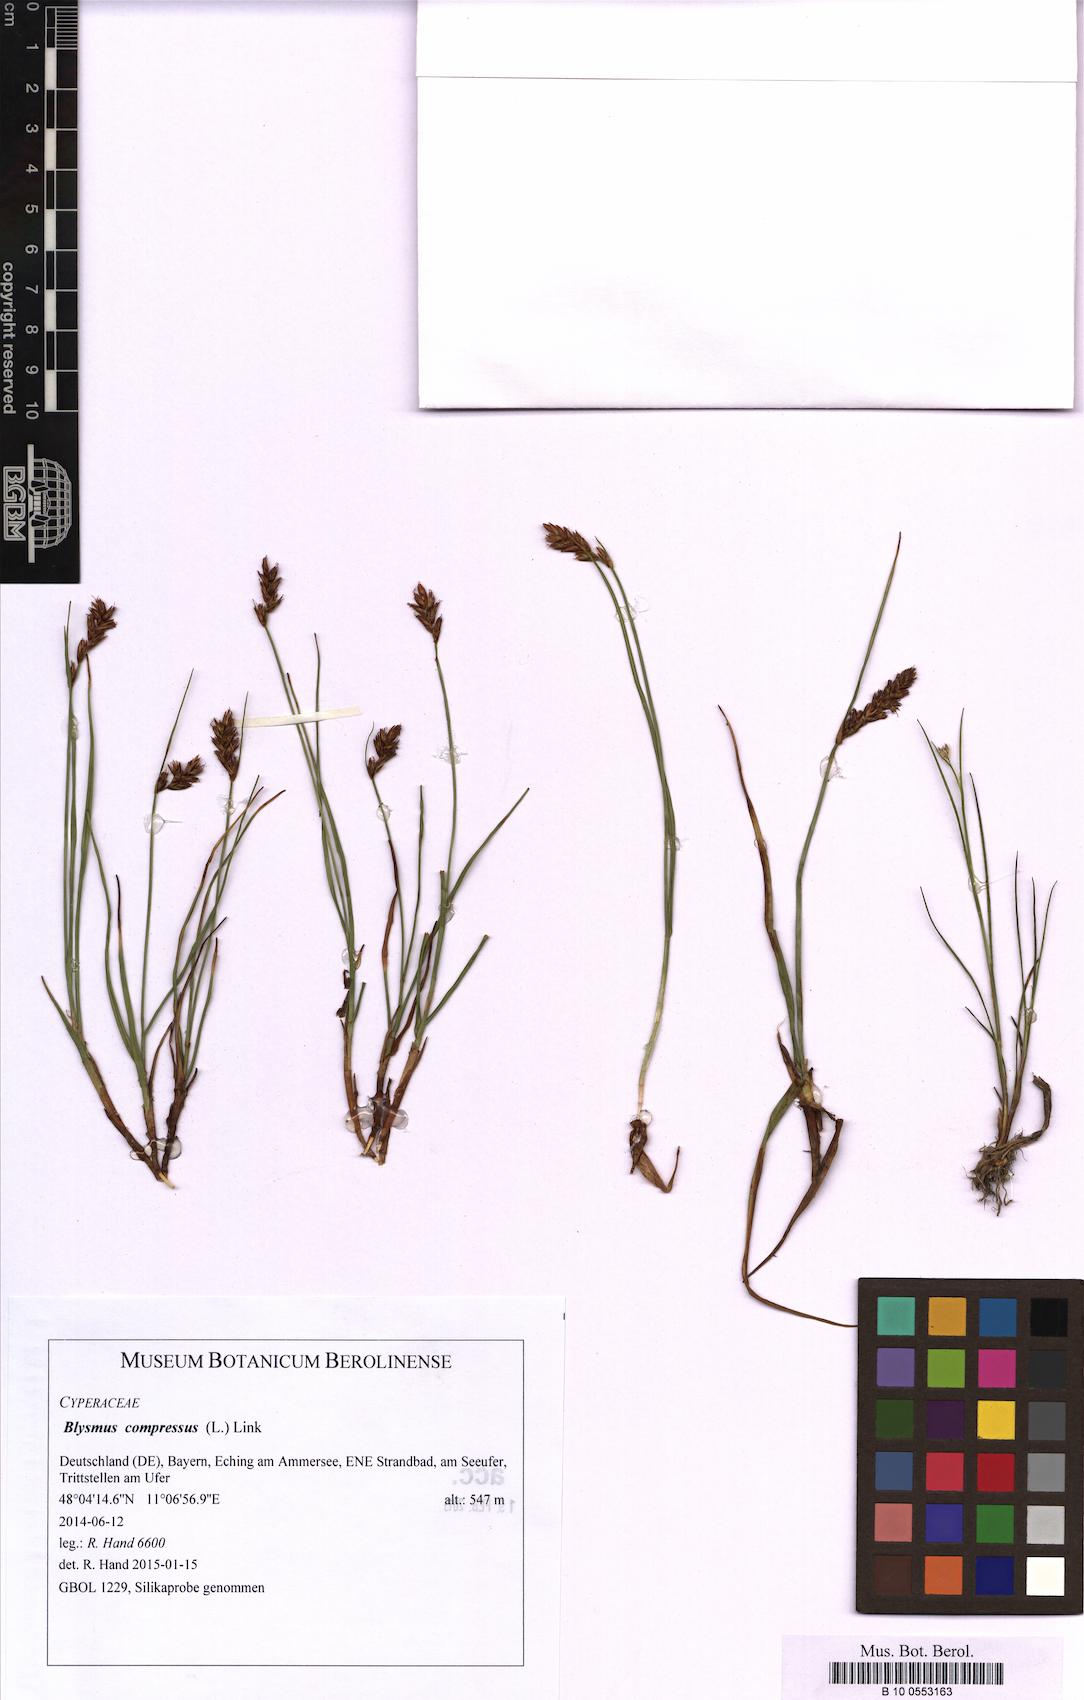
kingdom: Plantae
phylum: Tracheophyta
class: Liliopsida
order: Poales
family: Cyperaceae
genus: Blysmus
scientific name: Blysmus compressus
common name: Flat-sedge
